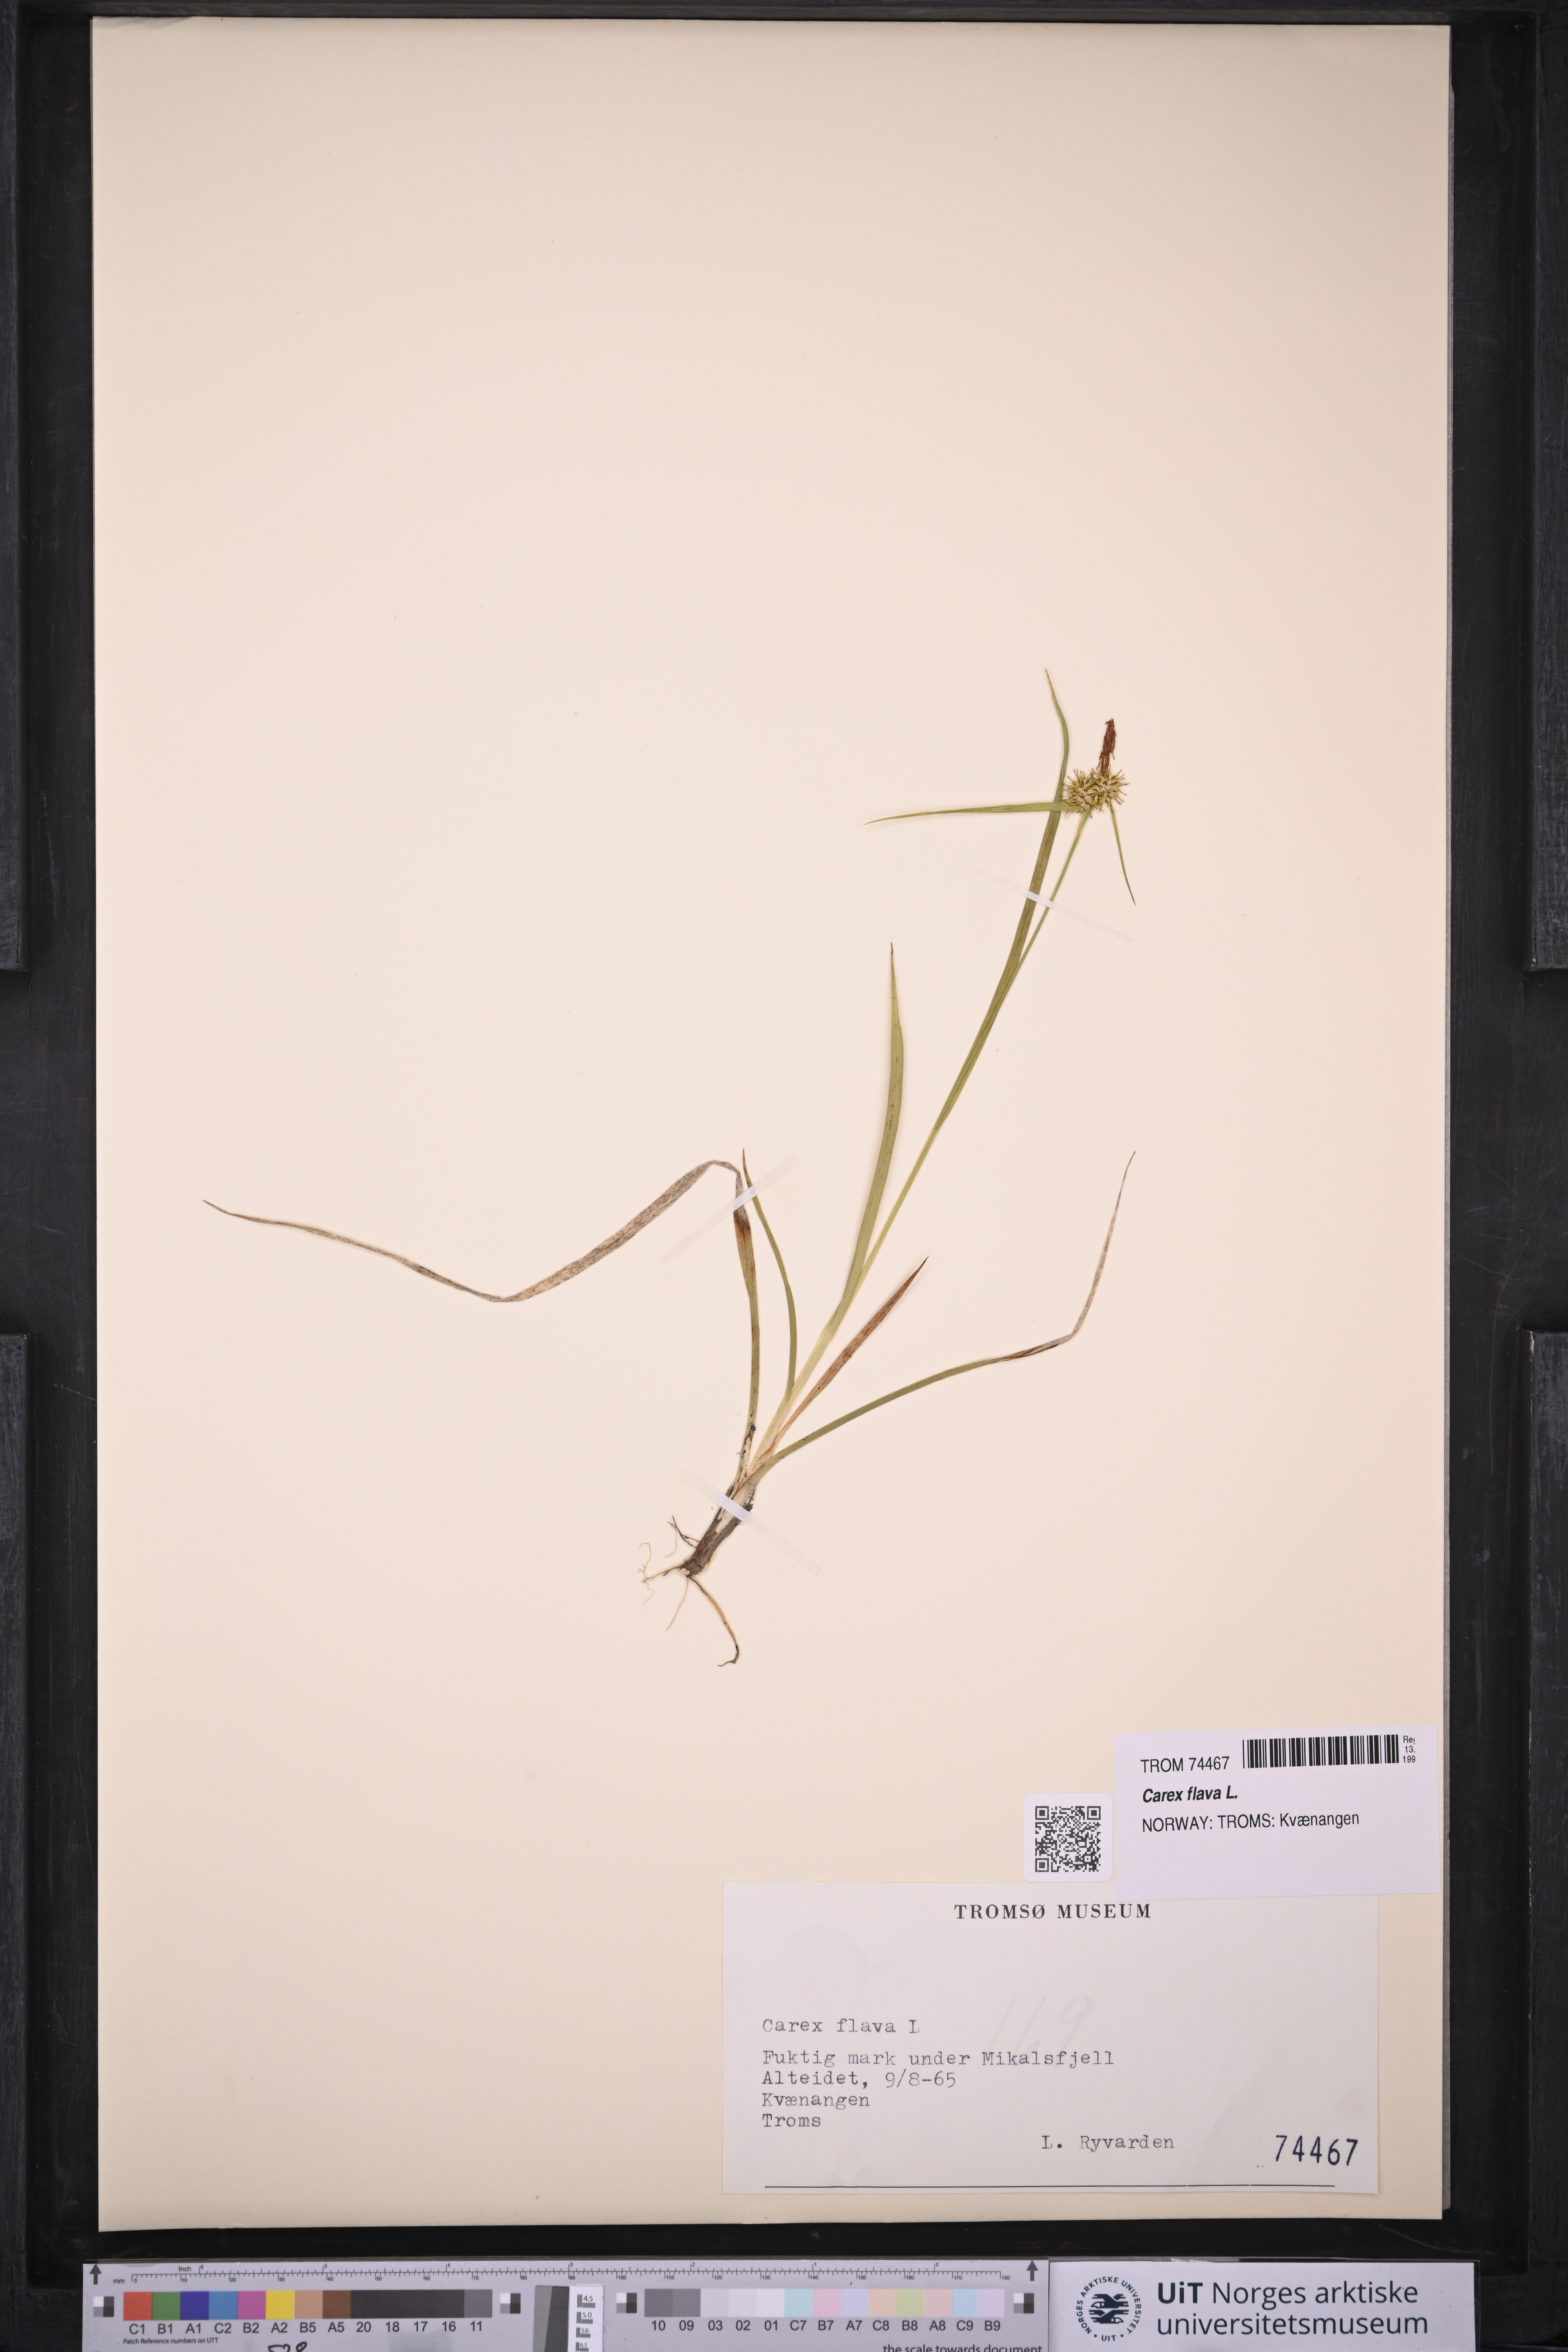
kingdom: Plantae
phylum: Tracheophyta
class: Liliopsida
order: Poales
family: Cyperaceae
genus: Carex
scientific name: Carex flava
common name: Large yellow-sedge
